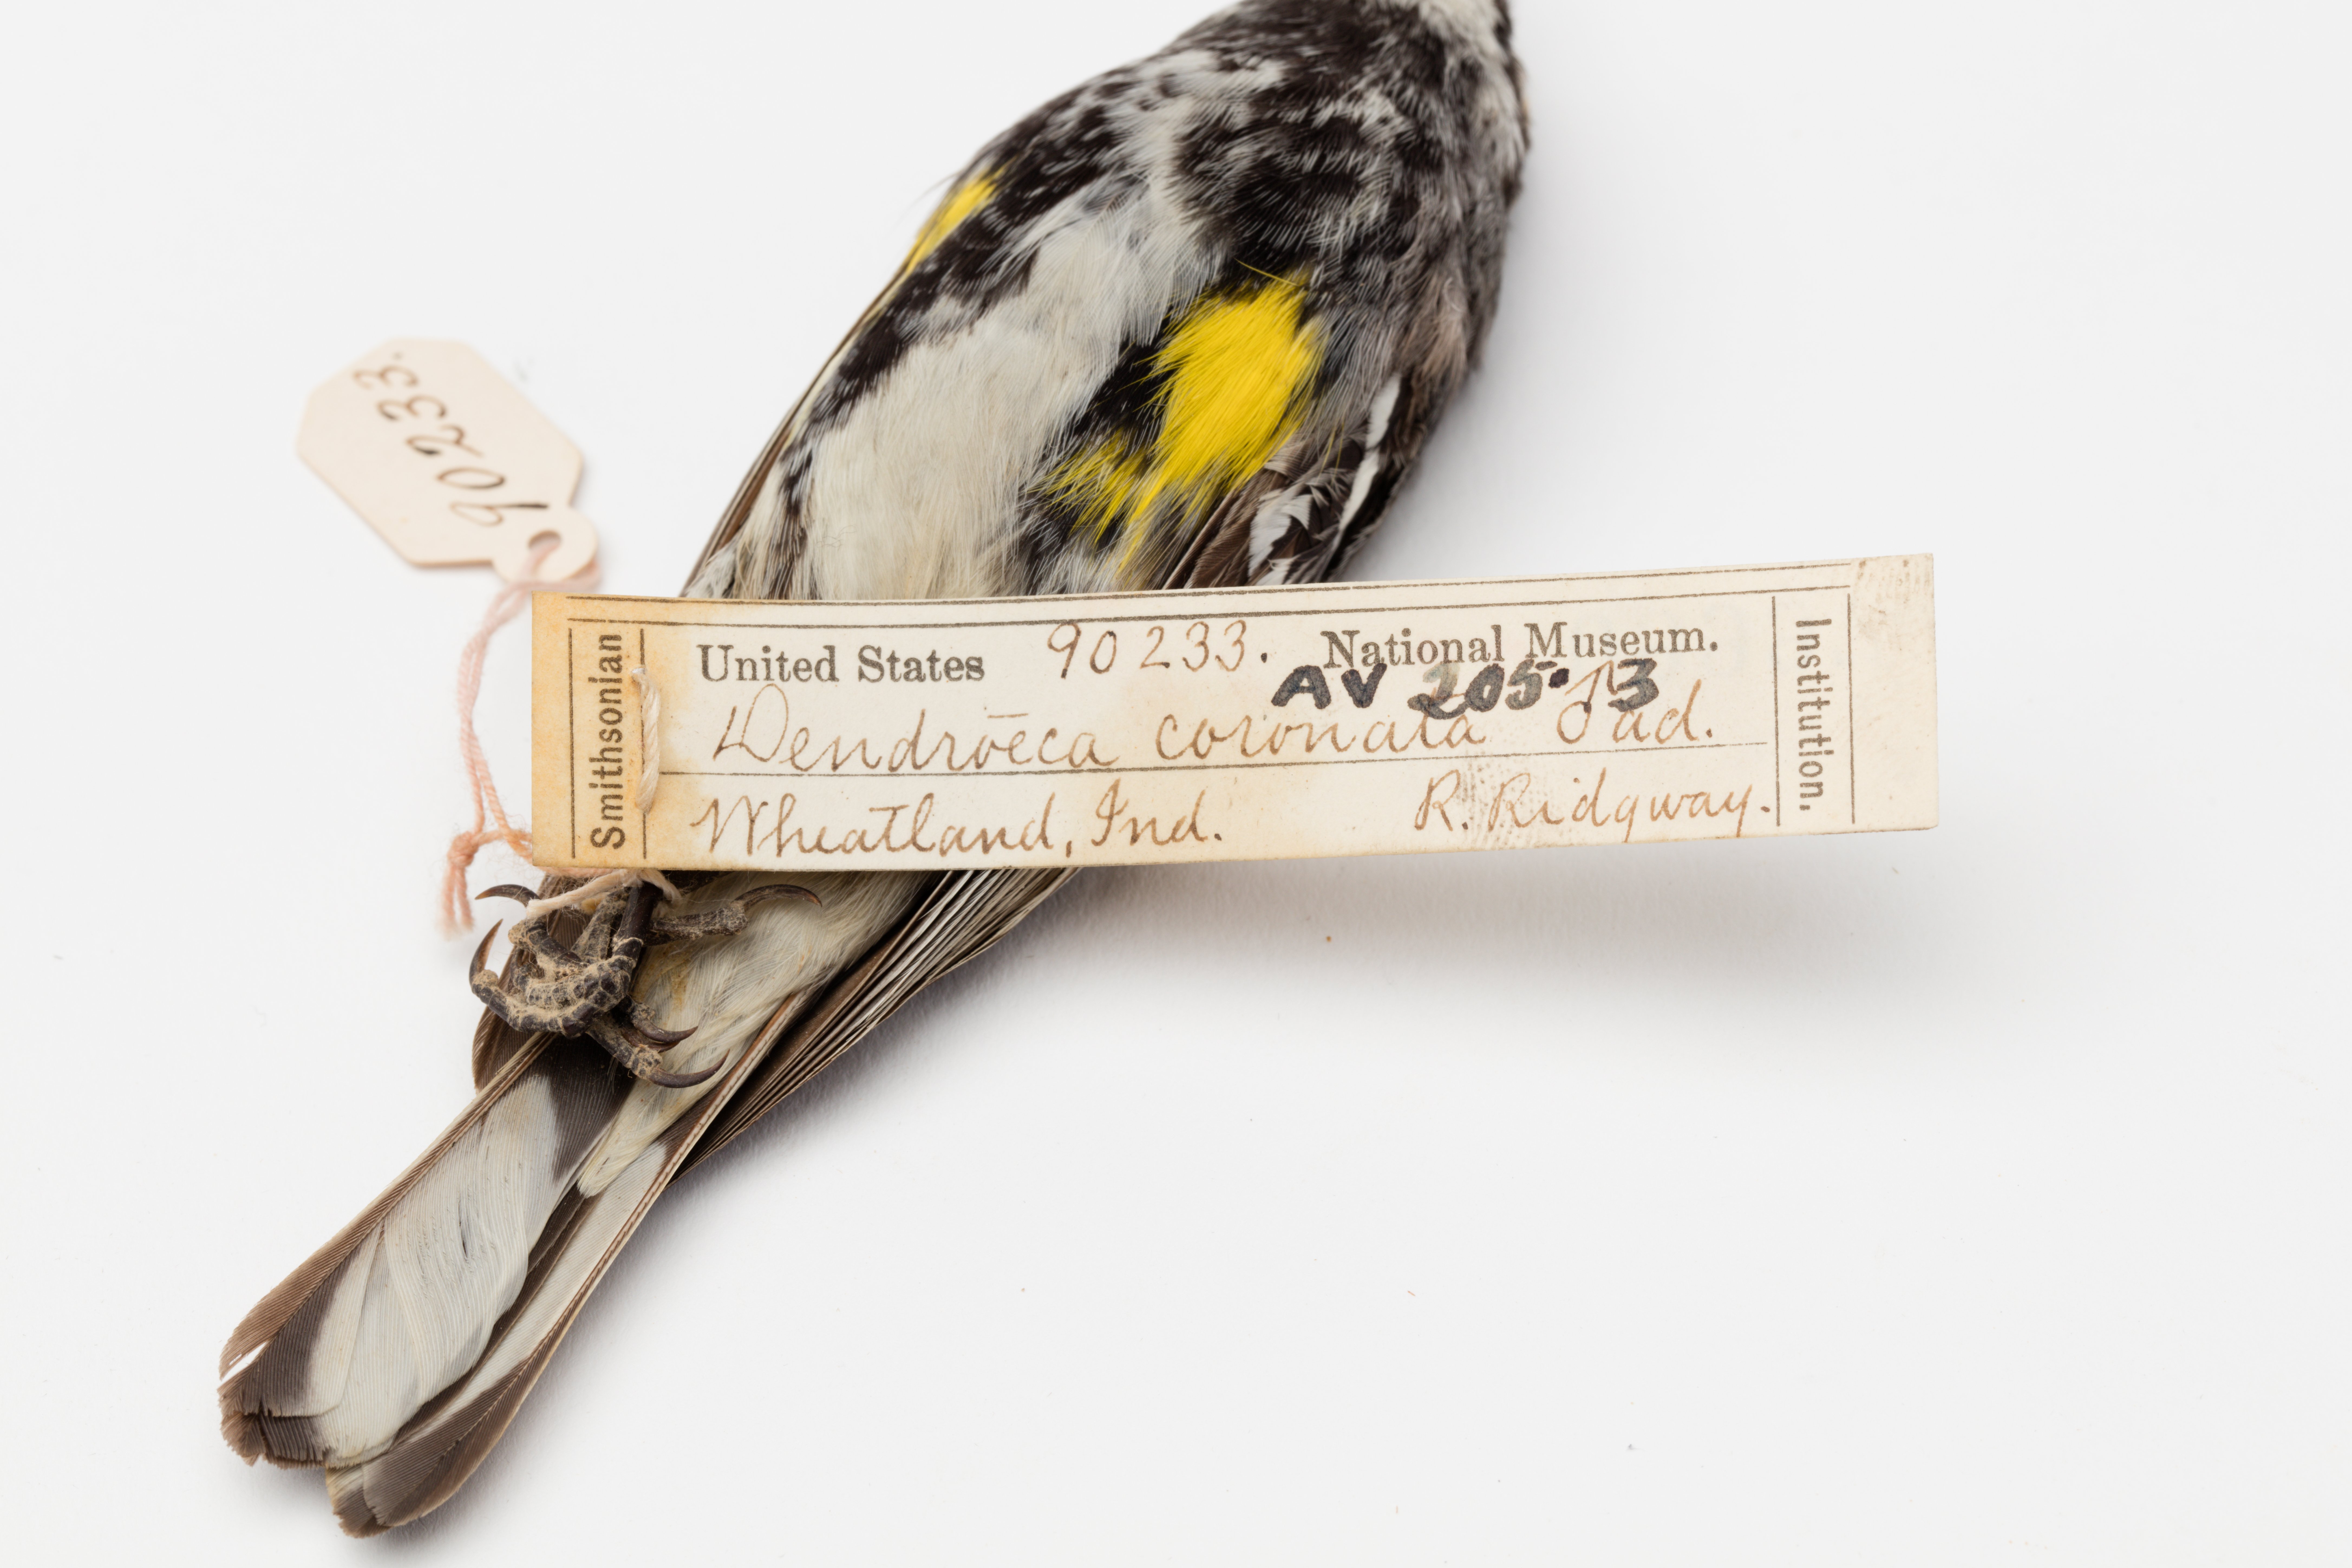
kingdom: Animalia
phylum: Chordata
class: Aves
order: Passeriformes
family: Parulidae
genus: Setophaga
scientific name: Setophaga coronata
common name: Myrtle warbler
